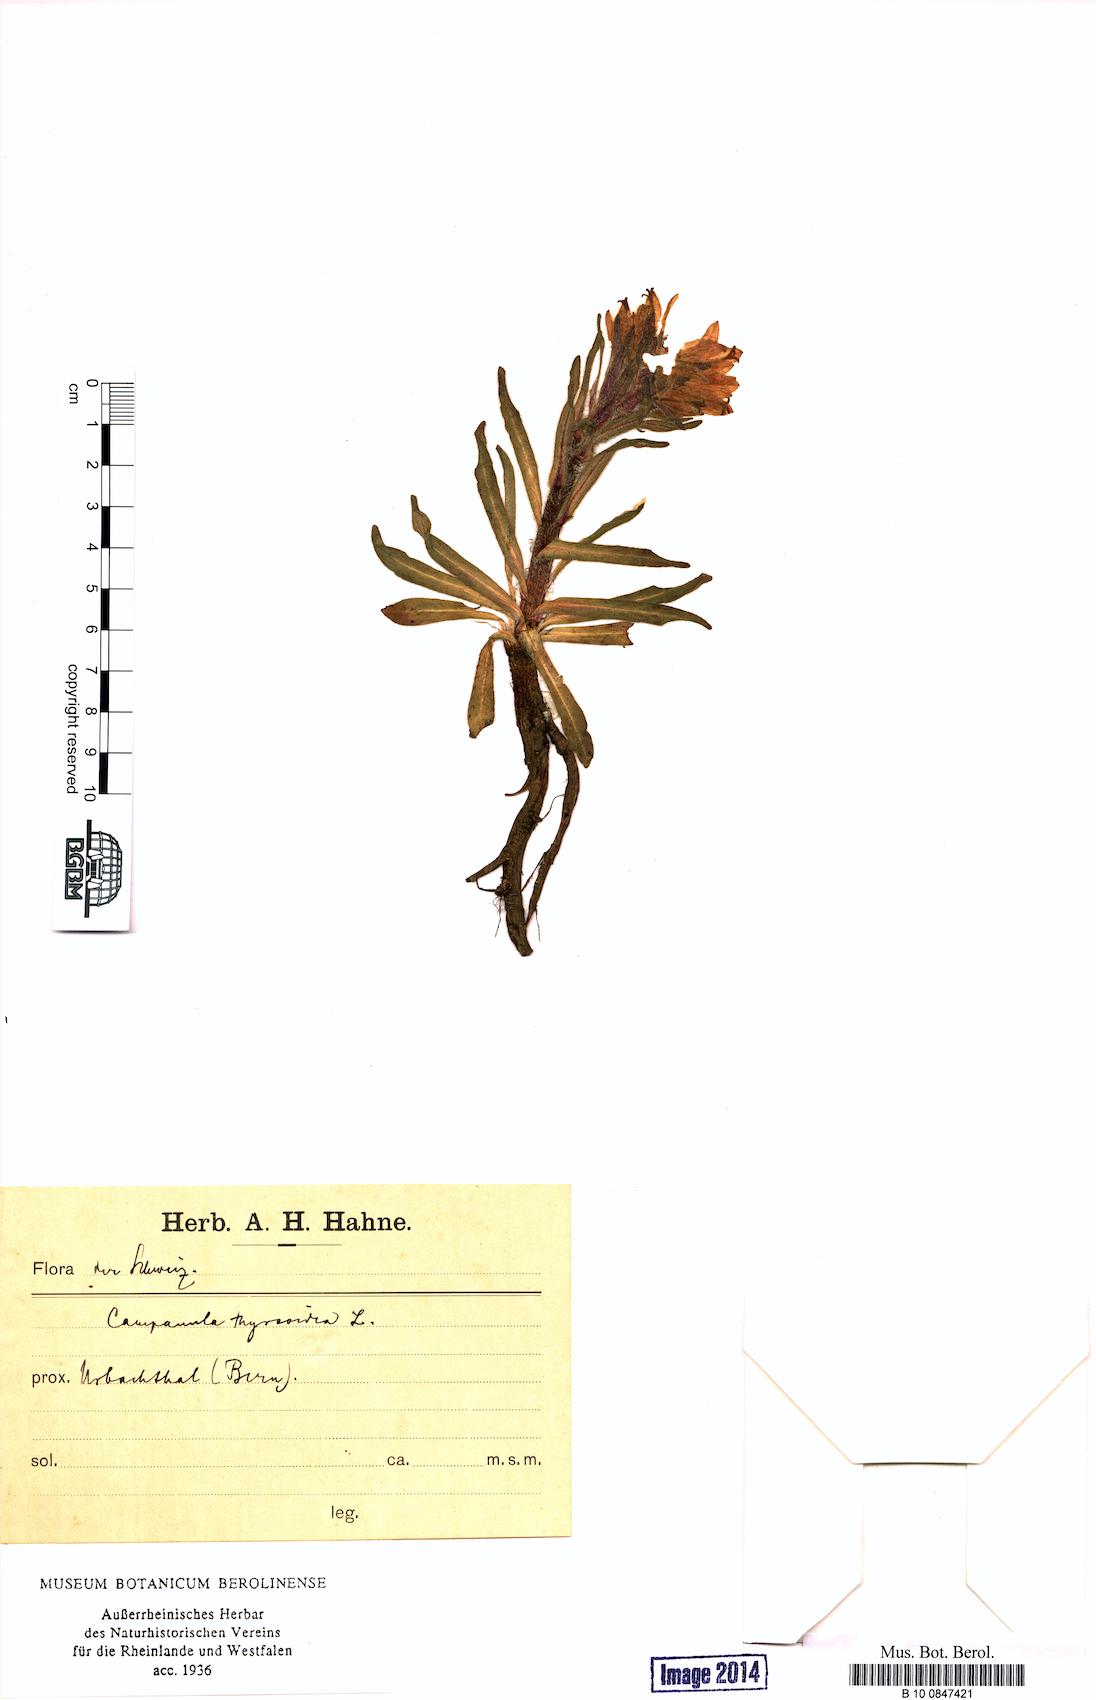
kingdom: Plantae
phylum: Tracheophyta
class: Magnoliopsida
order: Asterales
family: Campanulaceae
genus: Campanula
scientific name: Campanula thyrsoides
